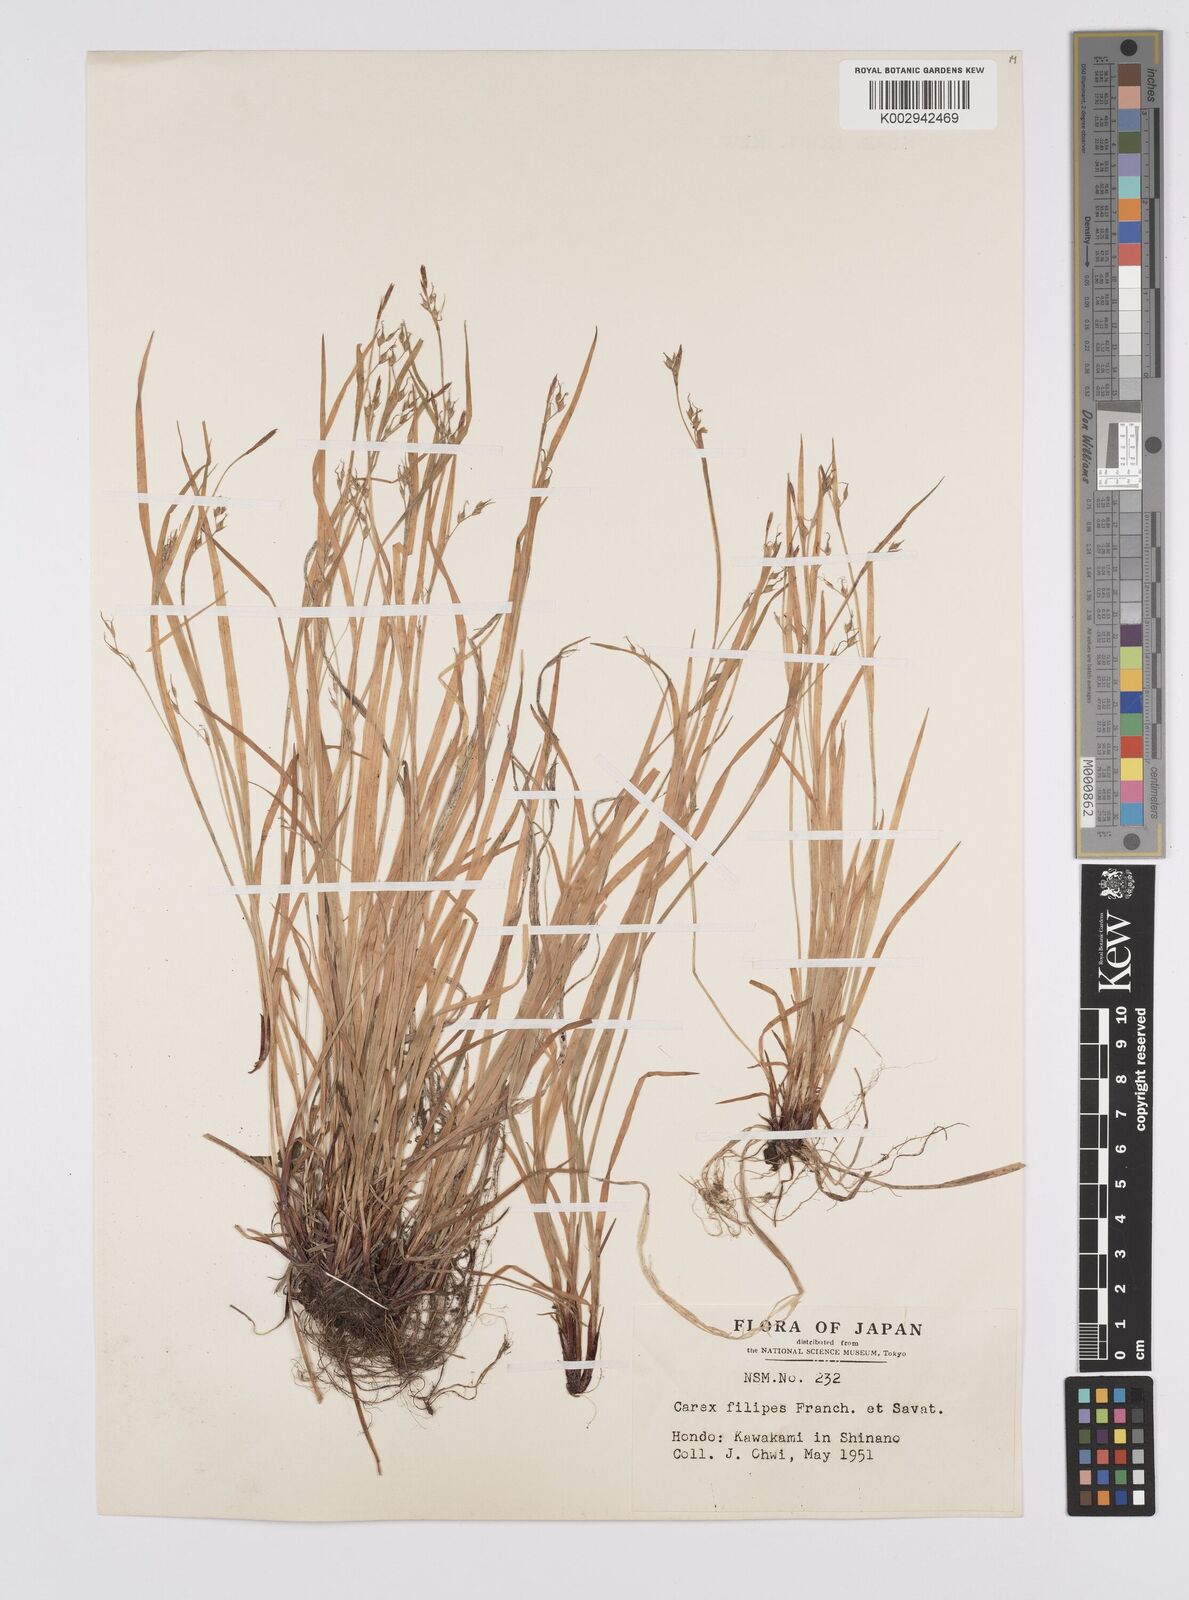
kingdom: Plantae
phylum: Tracheophyta
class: Liliopsida
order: Poales
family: Cyperaceae
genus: Carex
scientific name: Carex filipes
